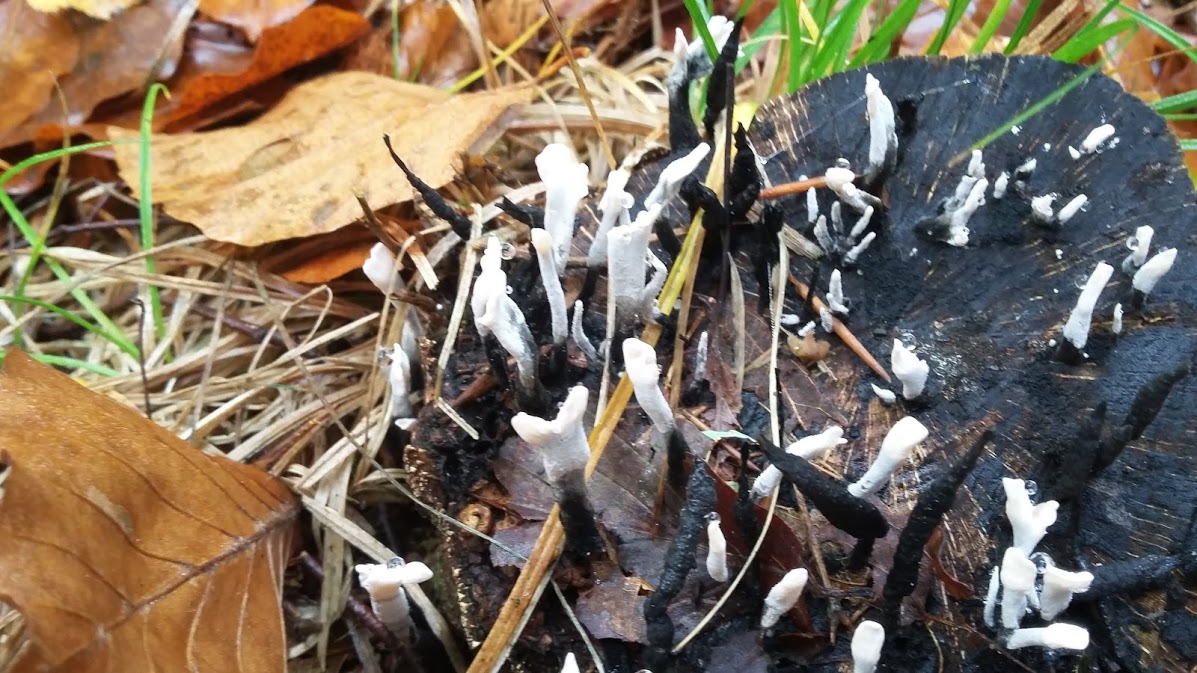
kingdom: Fungi
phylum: Ascomycota
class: Sordariomycetes
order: Xylariales
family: Xylariaceae
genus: Xylaria
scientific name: Xylaria hypoxylon
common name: grenet stødsvamp
